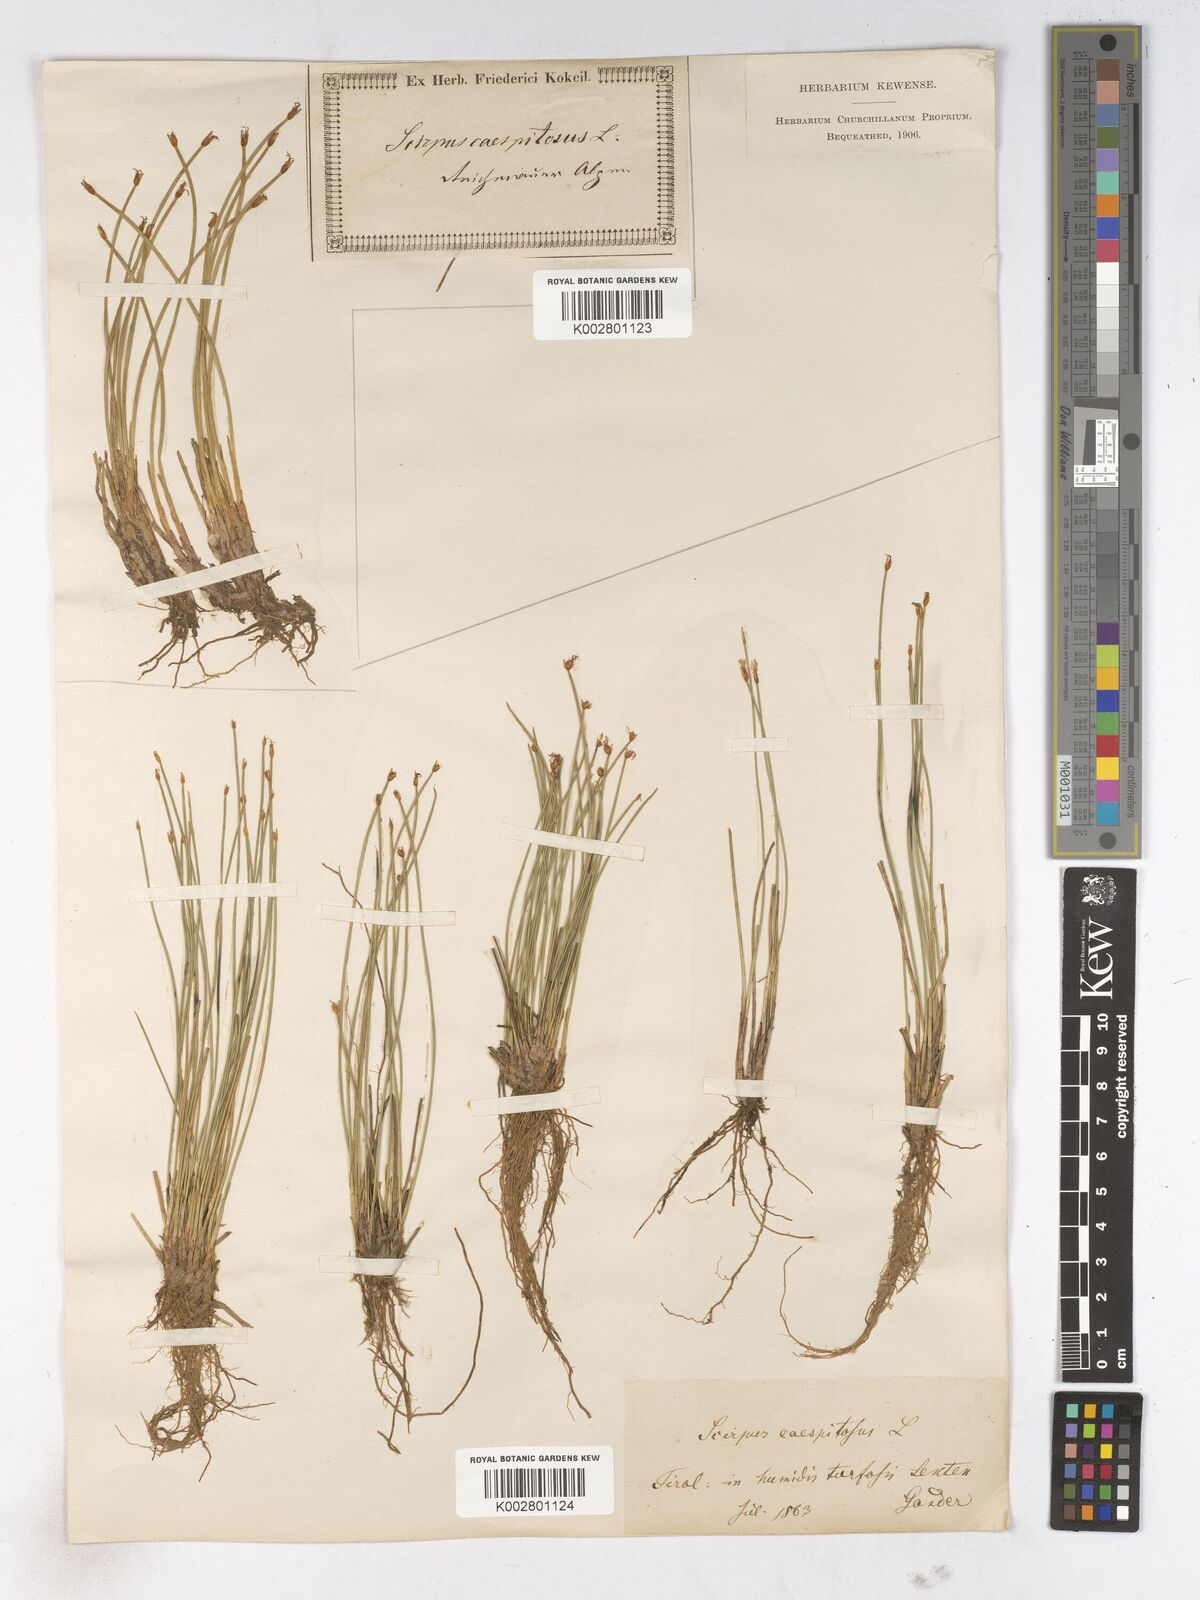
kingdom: Plantae
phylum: Tracheophyta
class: Liliopsida
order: Poales
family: Cyperaceae
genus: Trichophorum
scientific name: Trichophorum cespitosum
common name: Cespitose bulrush
